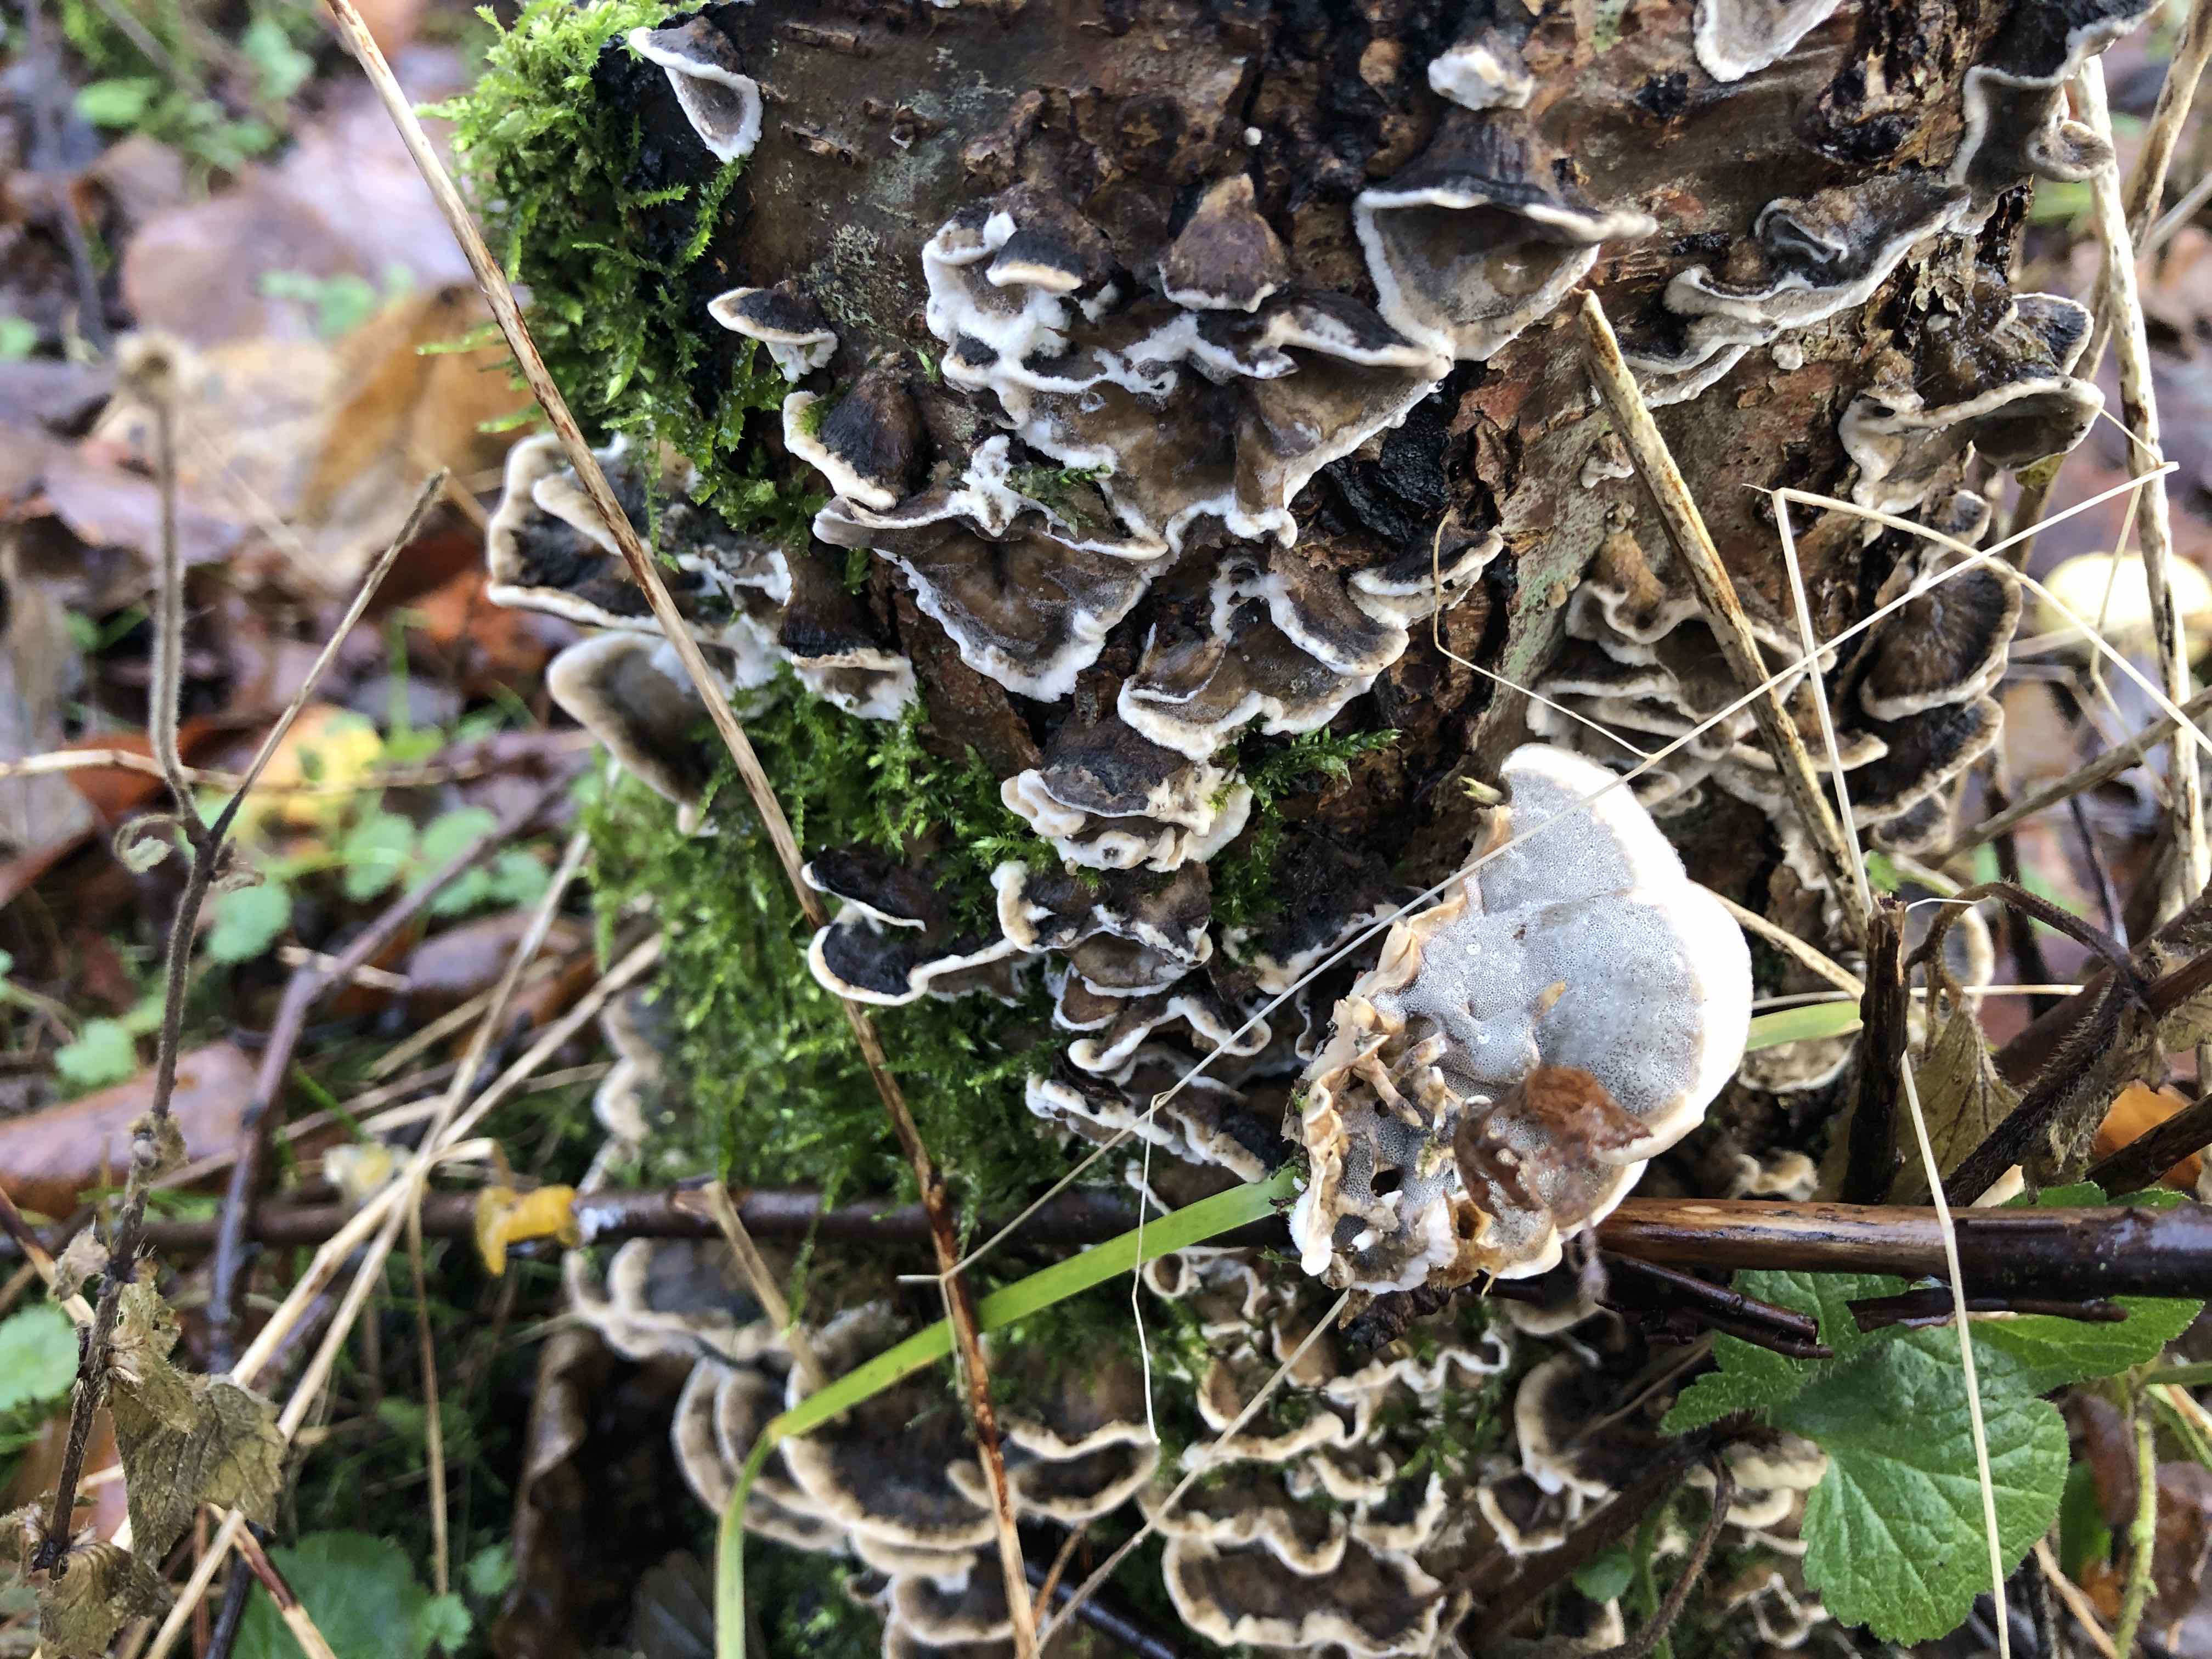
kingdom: Fungi
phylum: Basidiomycota
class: Agaricomycetes
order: Polyporales
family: Phanerochaetaceae
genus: Bjerkandera
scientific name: Bjerkandera adusta
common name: sveden sodporesvamp
